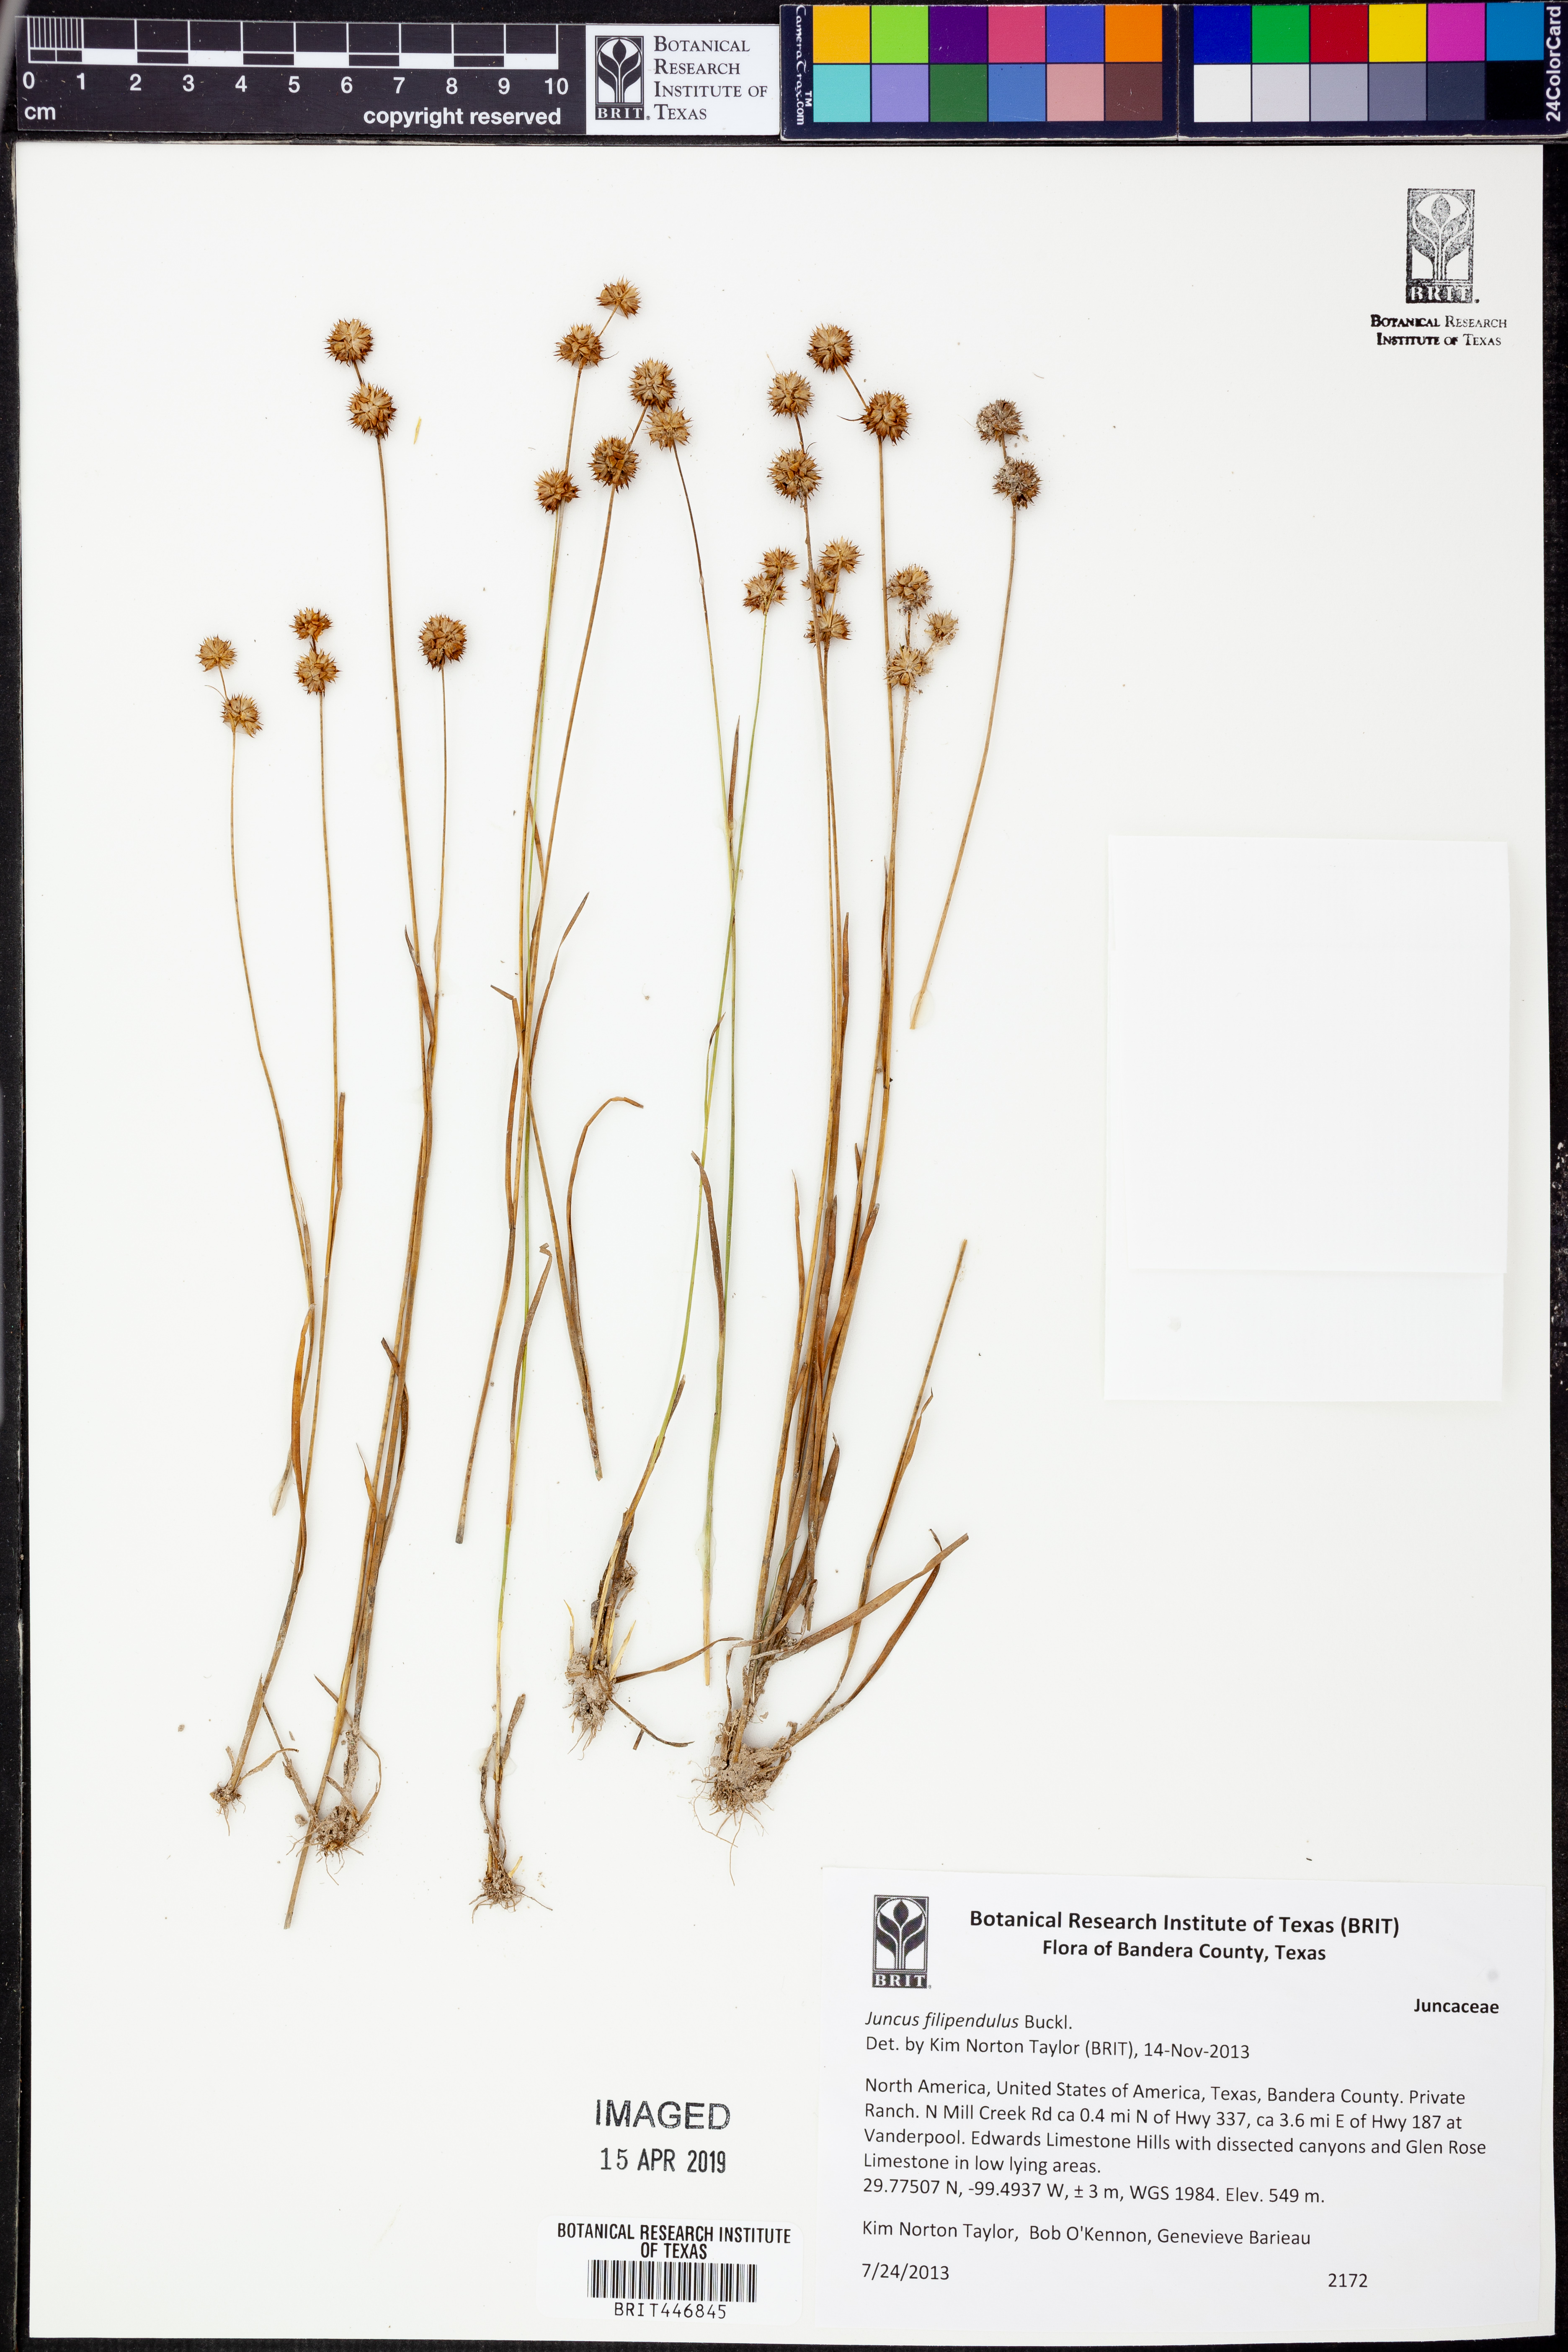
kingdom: Plantae
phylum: Tracheophyta
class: Liliopsida
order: Poales
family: Juncaceae
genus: Juncus
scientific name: Juncus filipendulus
